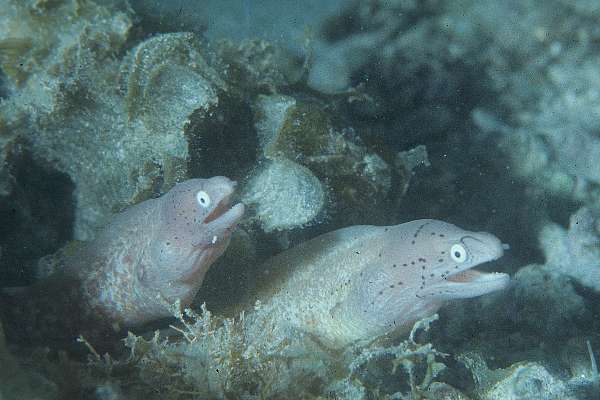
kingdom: Animalia
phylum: Chordata
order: Anguilliformes
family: Muraenidae
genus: Gymnothorax
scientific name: Gymnothorax griseus
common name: Geometric moray
